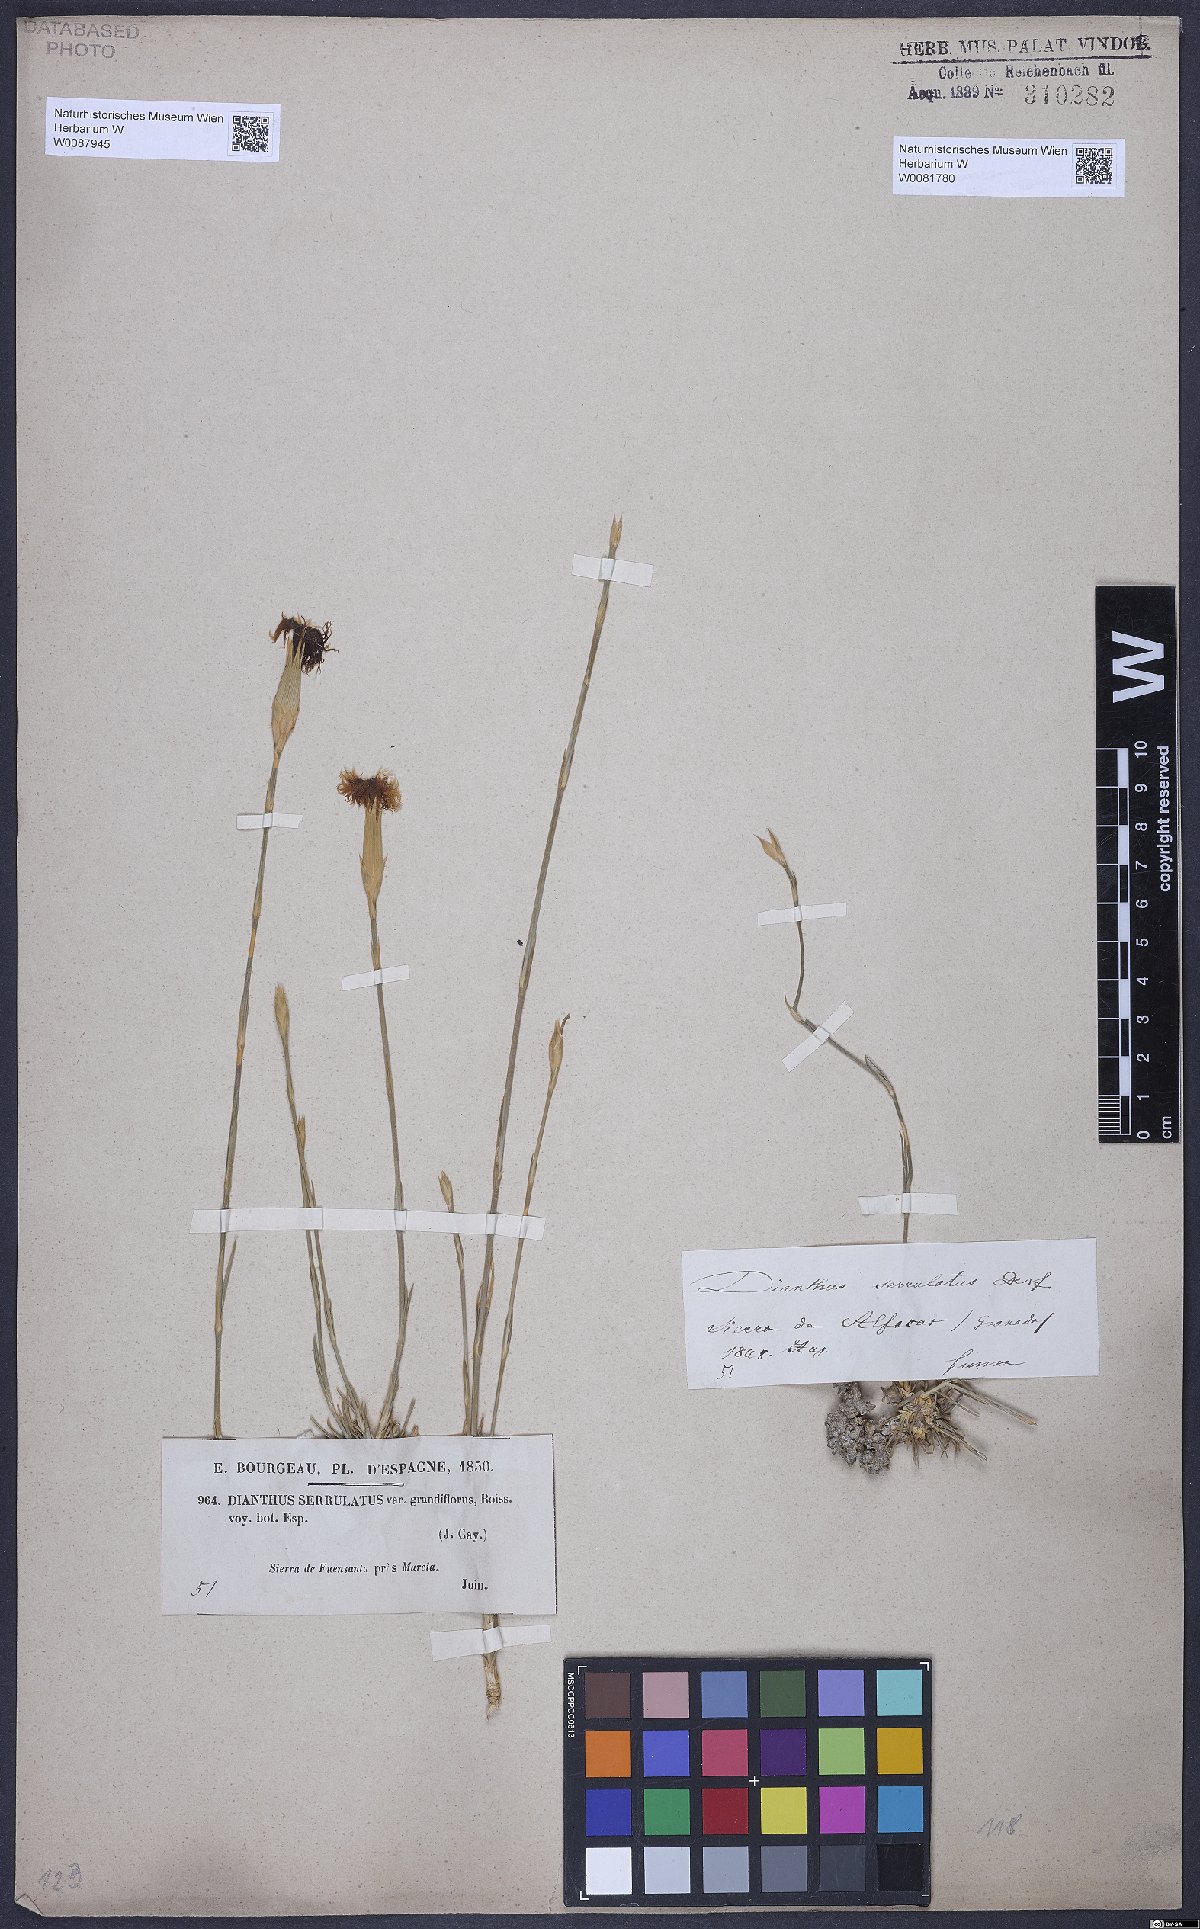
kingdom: Plantae
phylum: Tracheophyta
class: Magnoliopsida
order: Caryophyllales
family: Caryophyllaceae
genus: Dianthus
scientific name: Dianthus broteri
